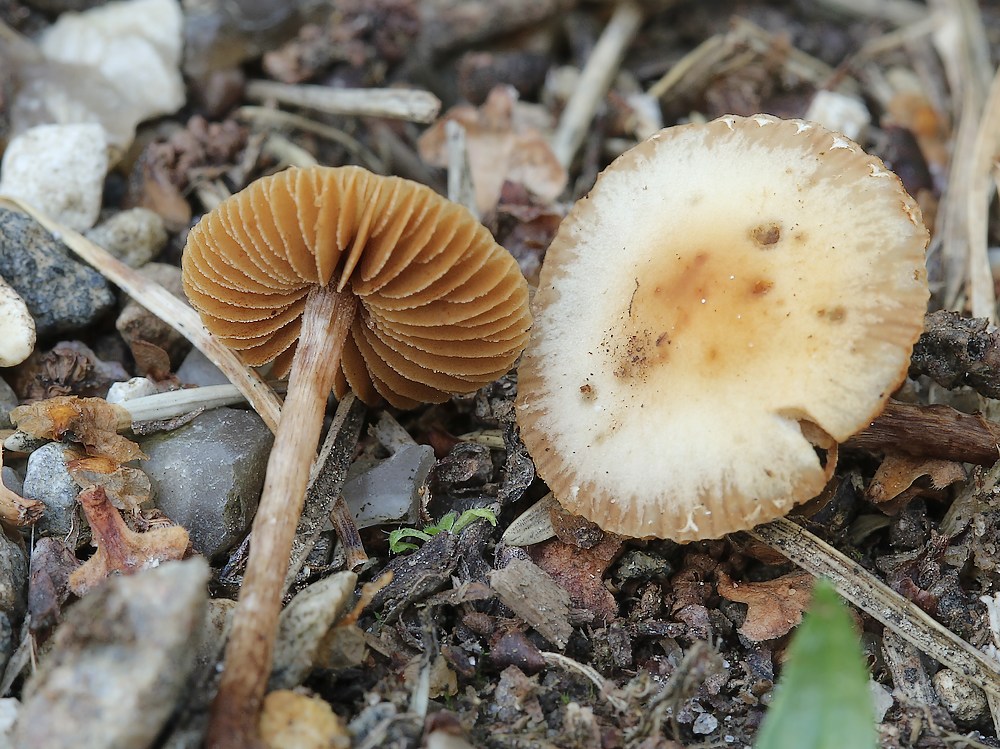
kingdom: Fungi
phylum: Basidiomycota
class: Agaricomycetes
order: Agaricales
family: Bolbitiaceae
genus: Conocybe
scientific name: Conocybe velata
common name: tandet dansehat
